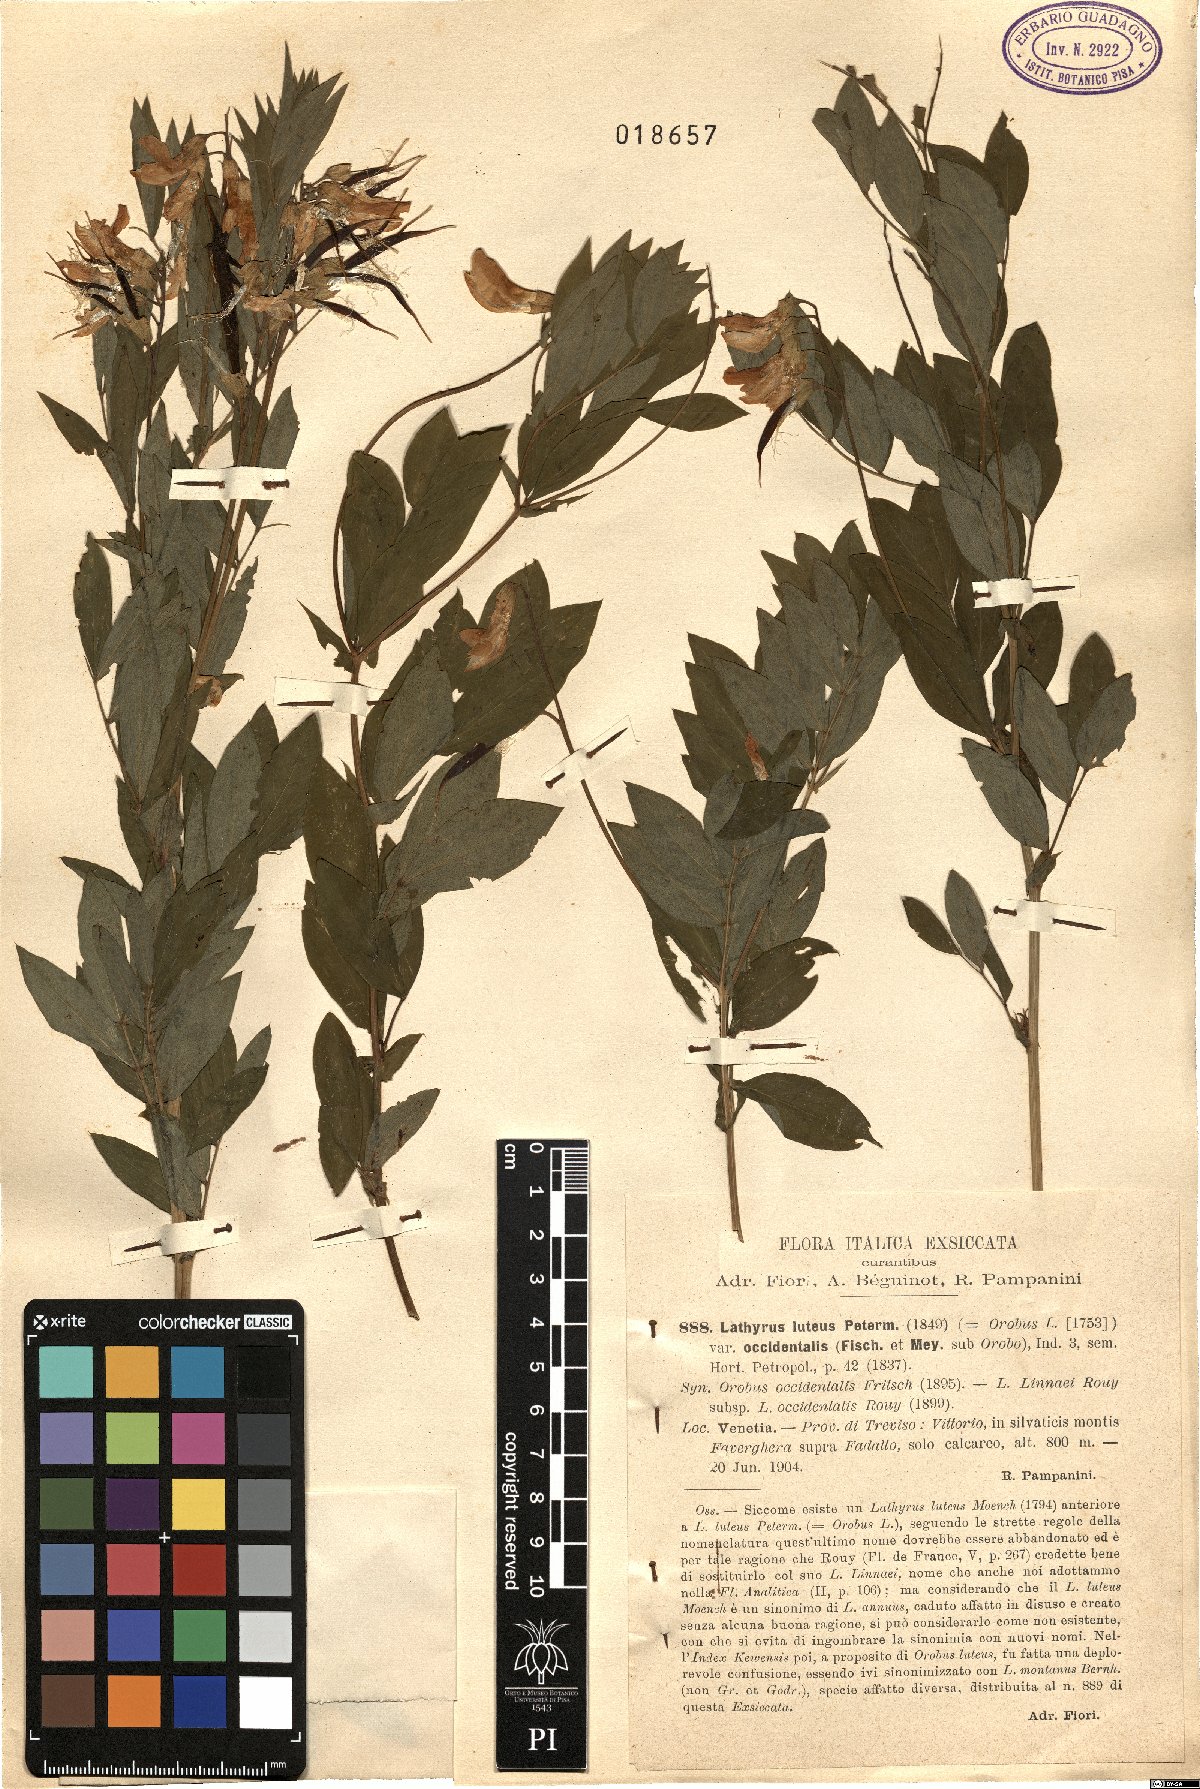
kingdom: Plantae
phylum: Tracheophyta
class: Magnoliopsida
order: Fabales
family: Fabaceae
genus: Lathyrus
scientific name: Lathyrus linifolius
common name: Bitter-vetch
